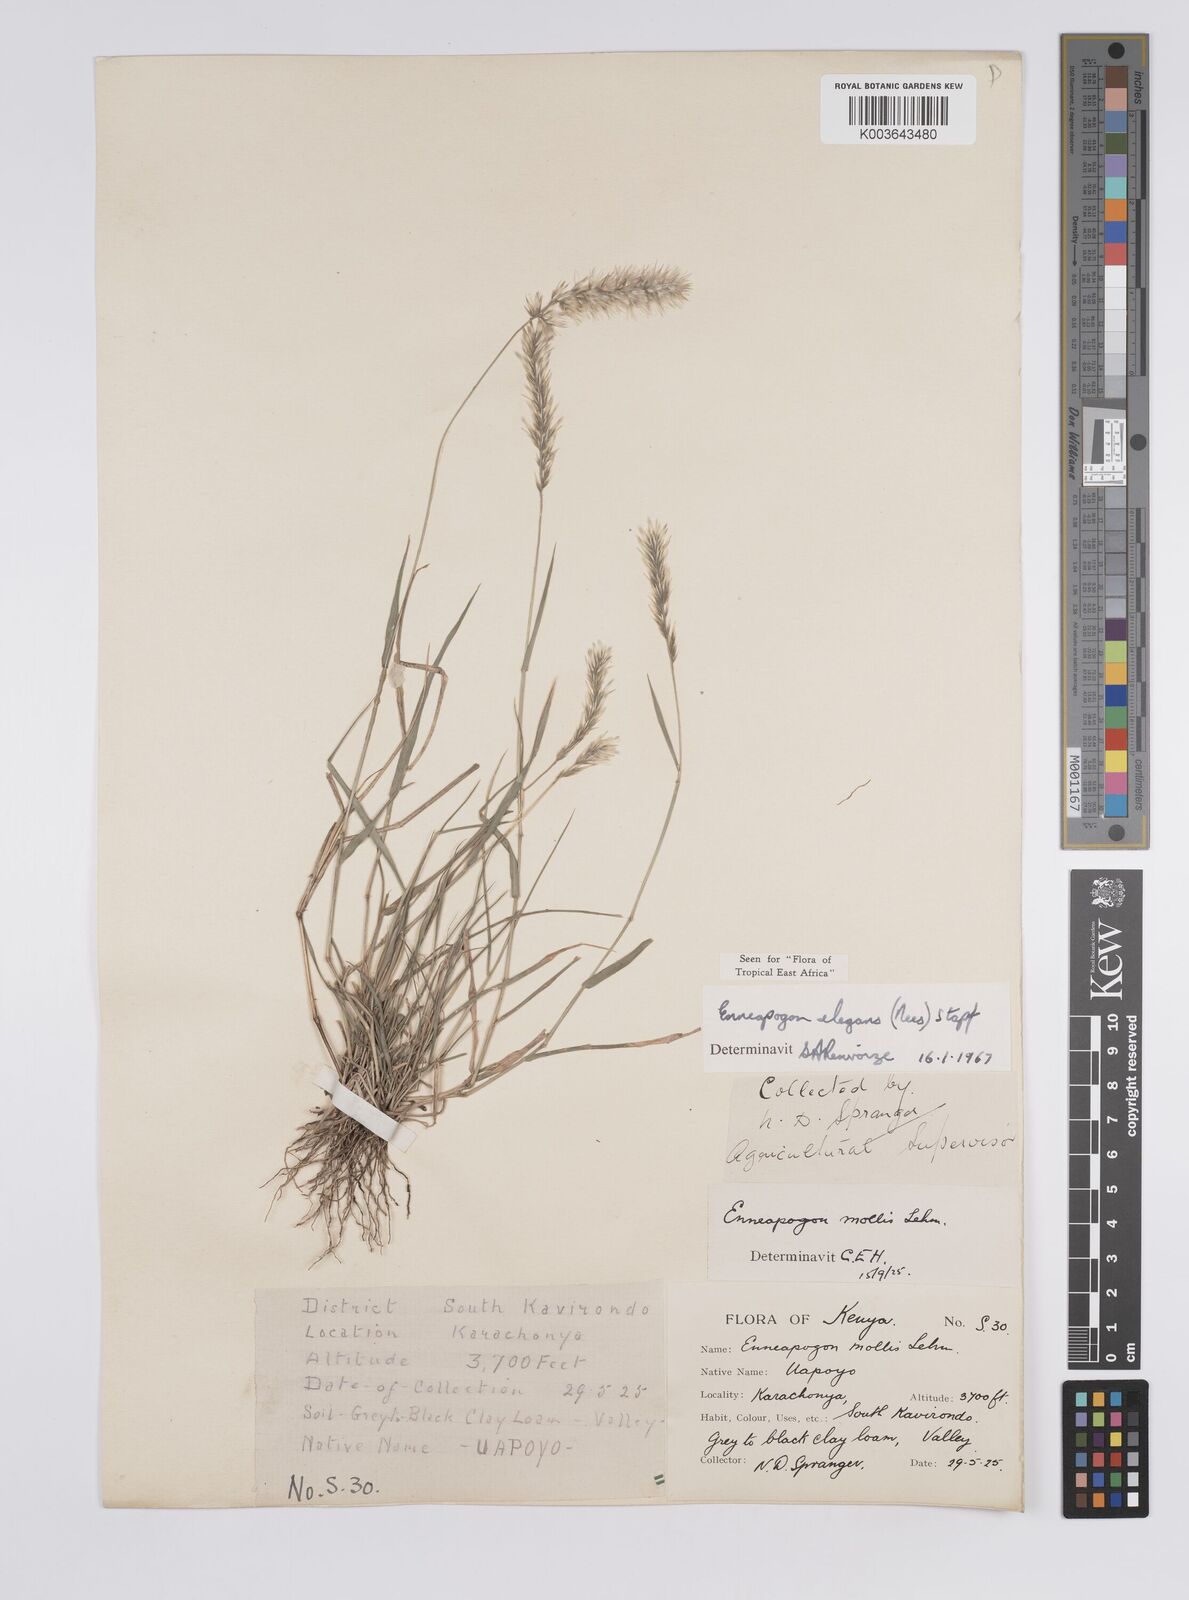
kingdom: Plantae
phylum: Tracheophyta
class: Liliopsida
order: Poales
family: Poaceae
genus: Enneapogon
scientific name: Enneapogon persicus
